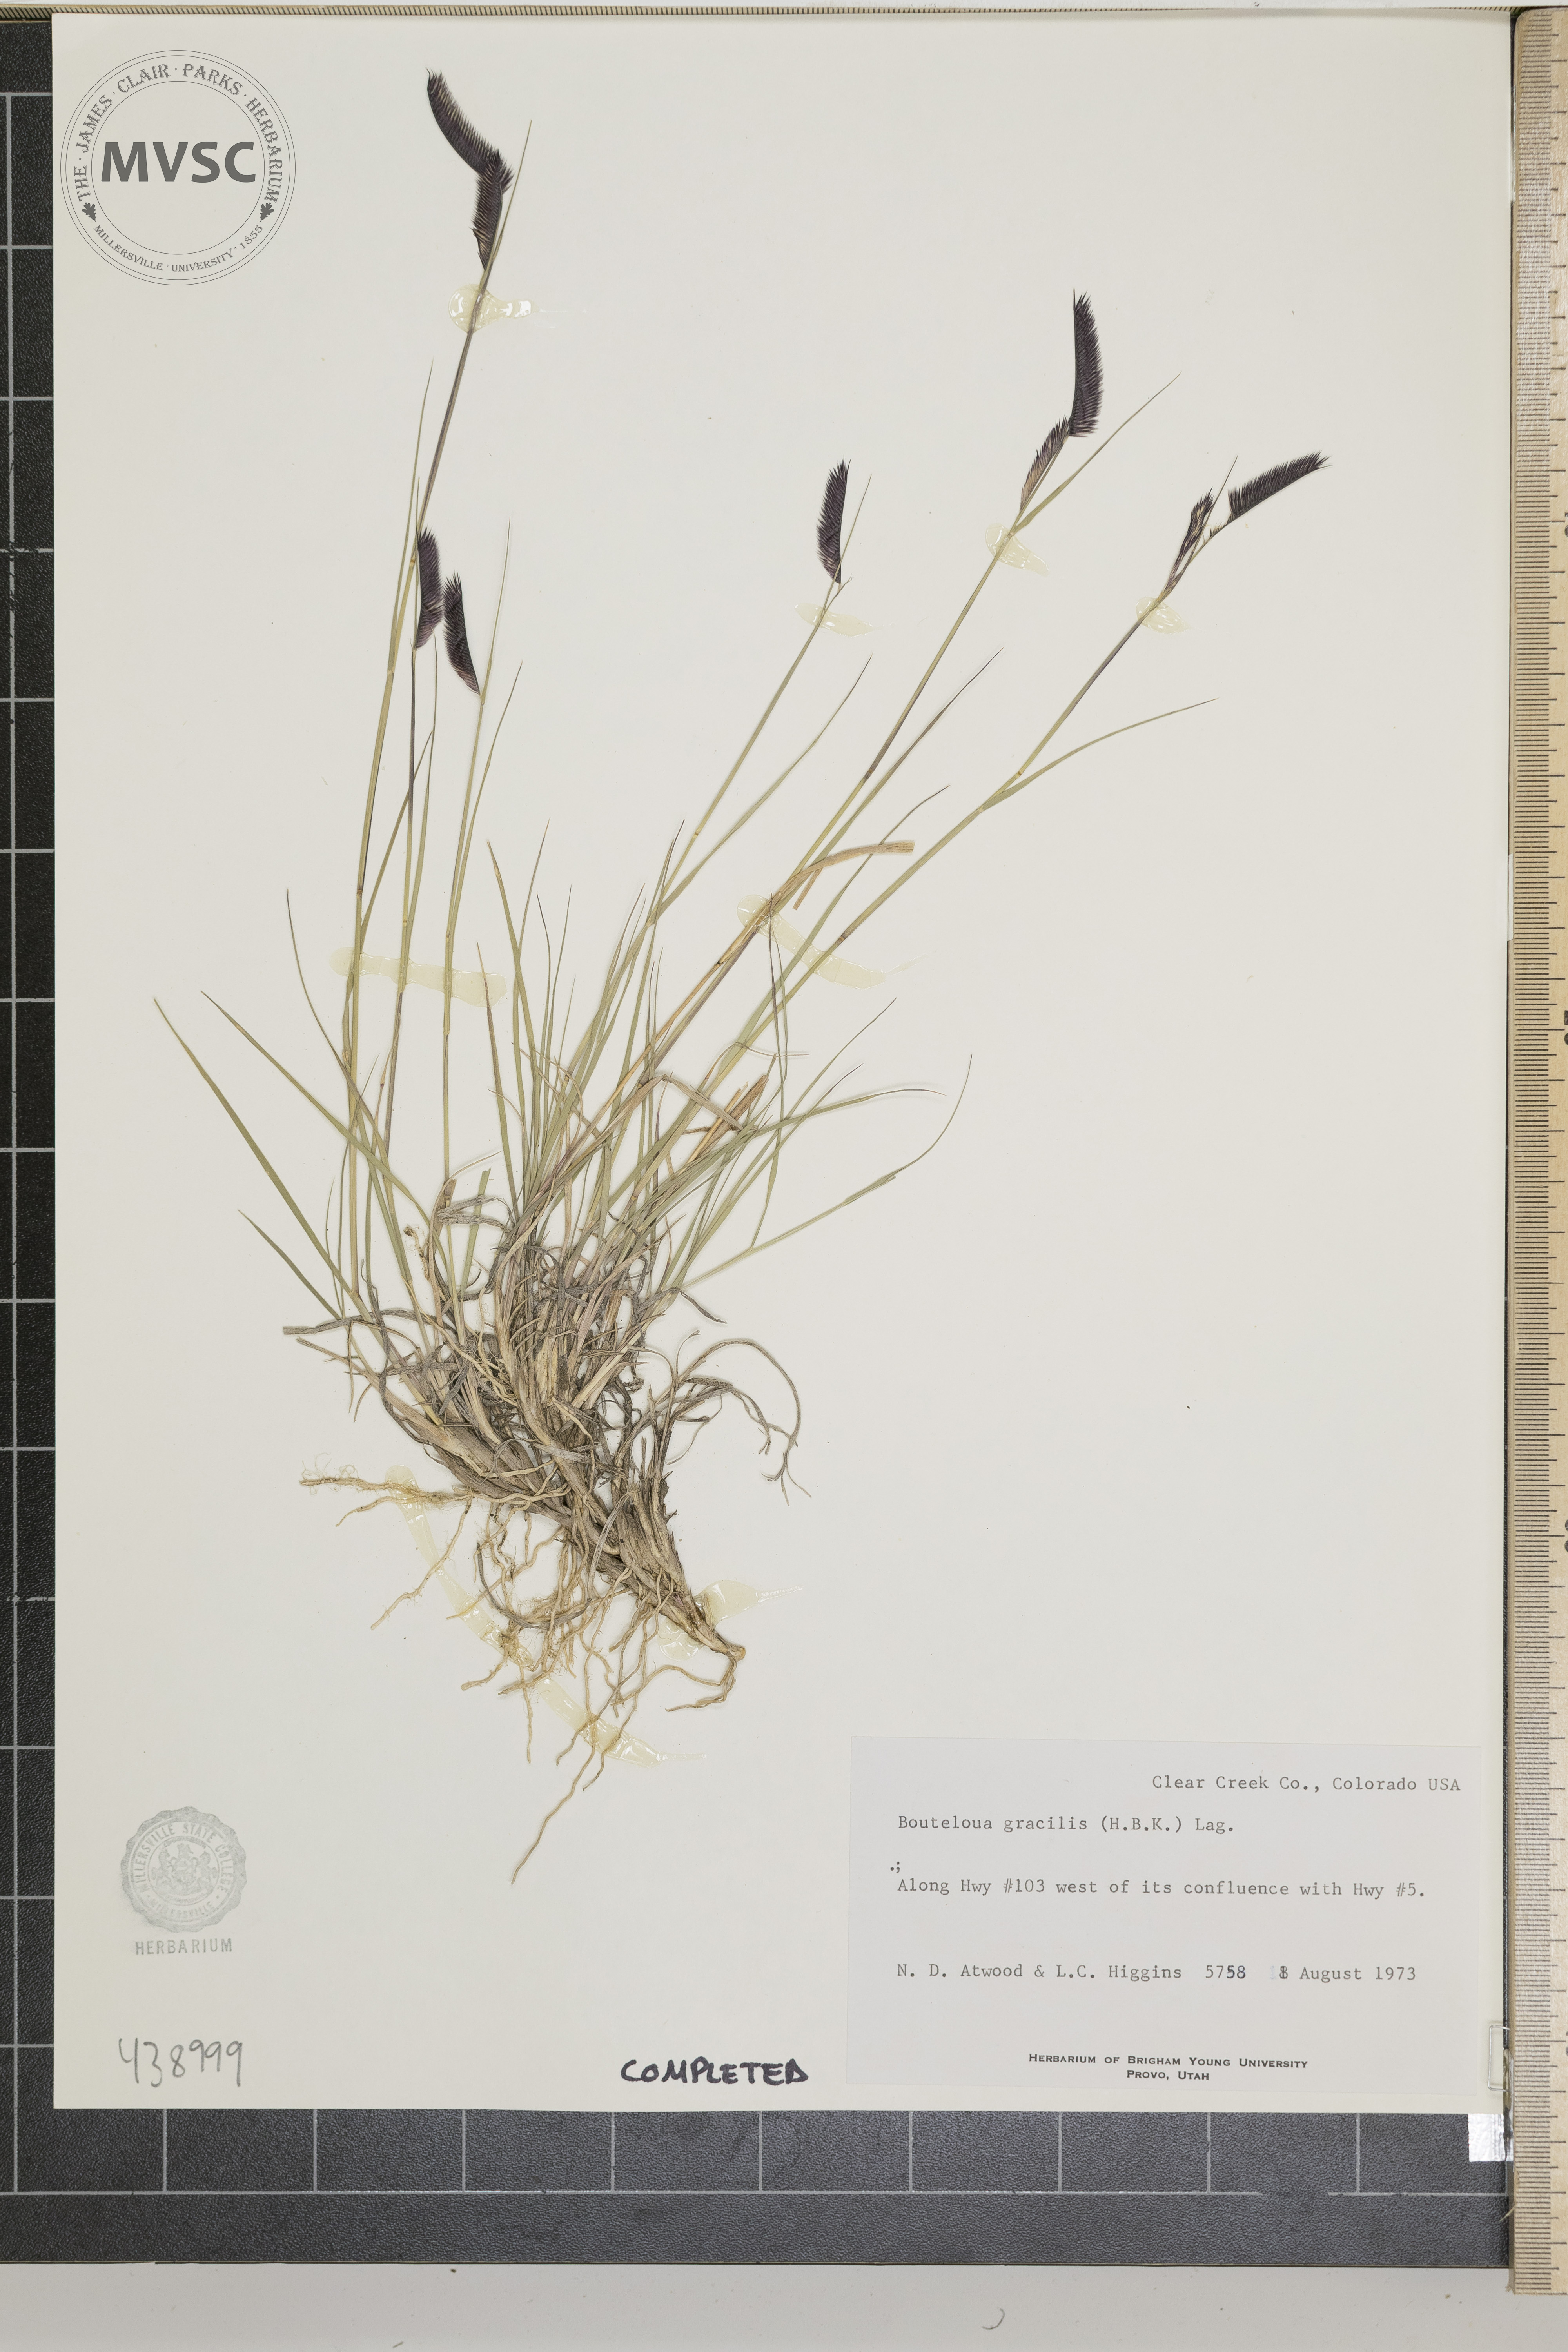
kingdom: Plantae
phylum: Tracheophyta
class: Liliopsida
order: Poales
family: Poaceae
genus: Bouteloua
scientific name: Bouteloua gracilis
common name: Blue grama
